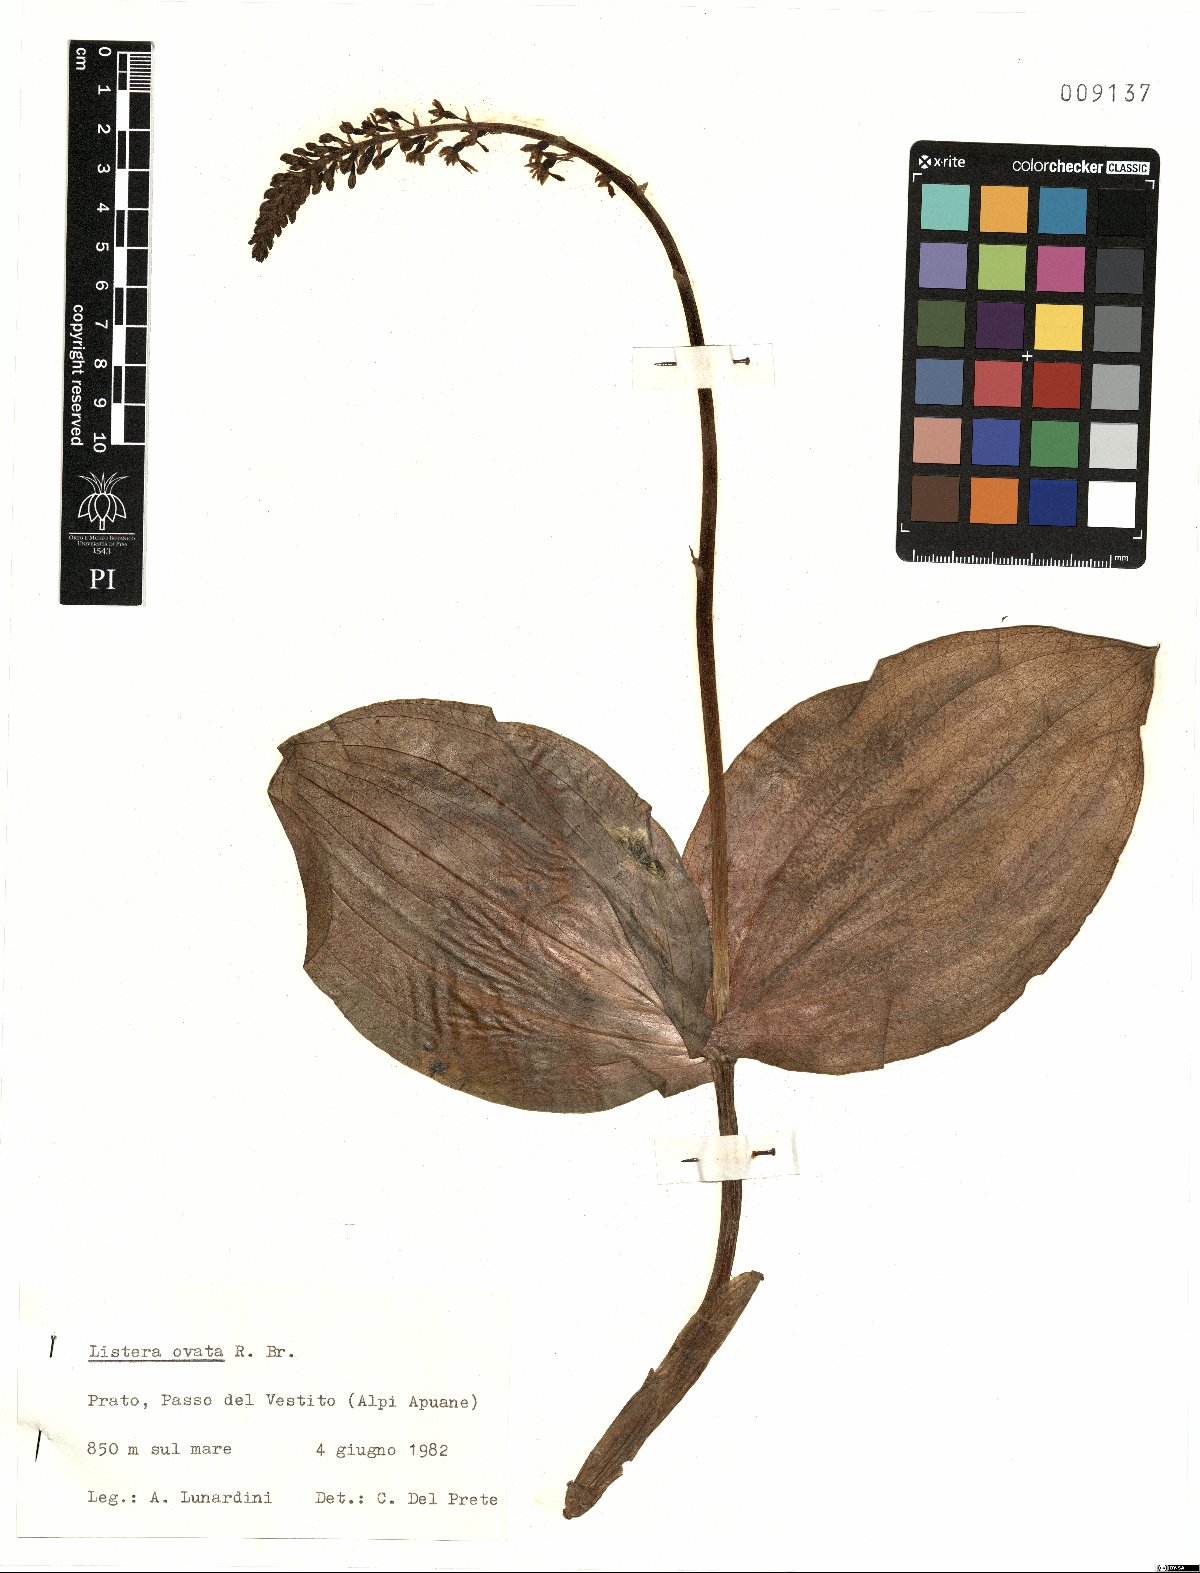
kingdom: Plantae
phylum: Tracheophyta
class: Liliopsida
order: Asparagales
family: Orchidaceae
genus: Neottia
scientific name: Neottia ovata
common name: Common twayblade
